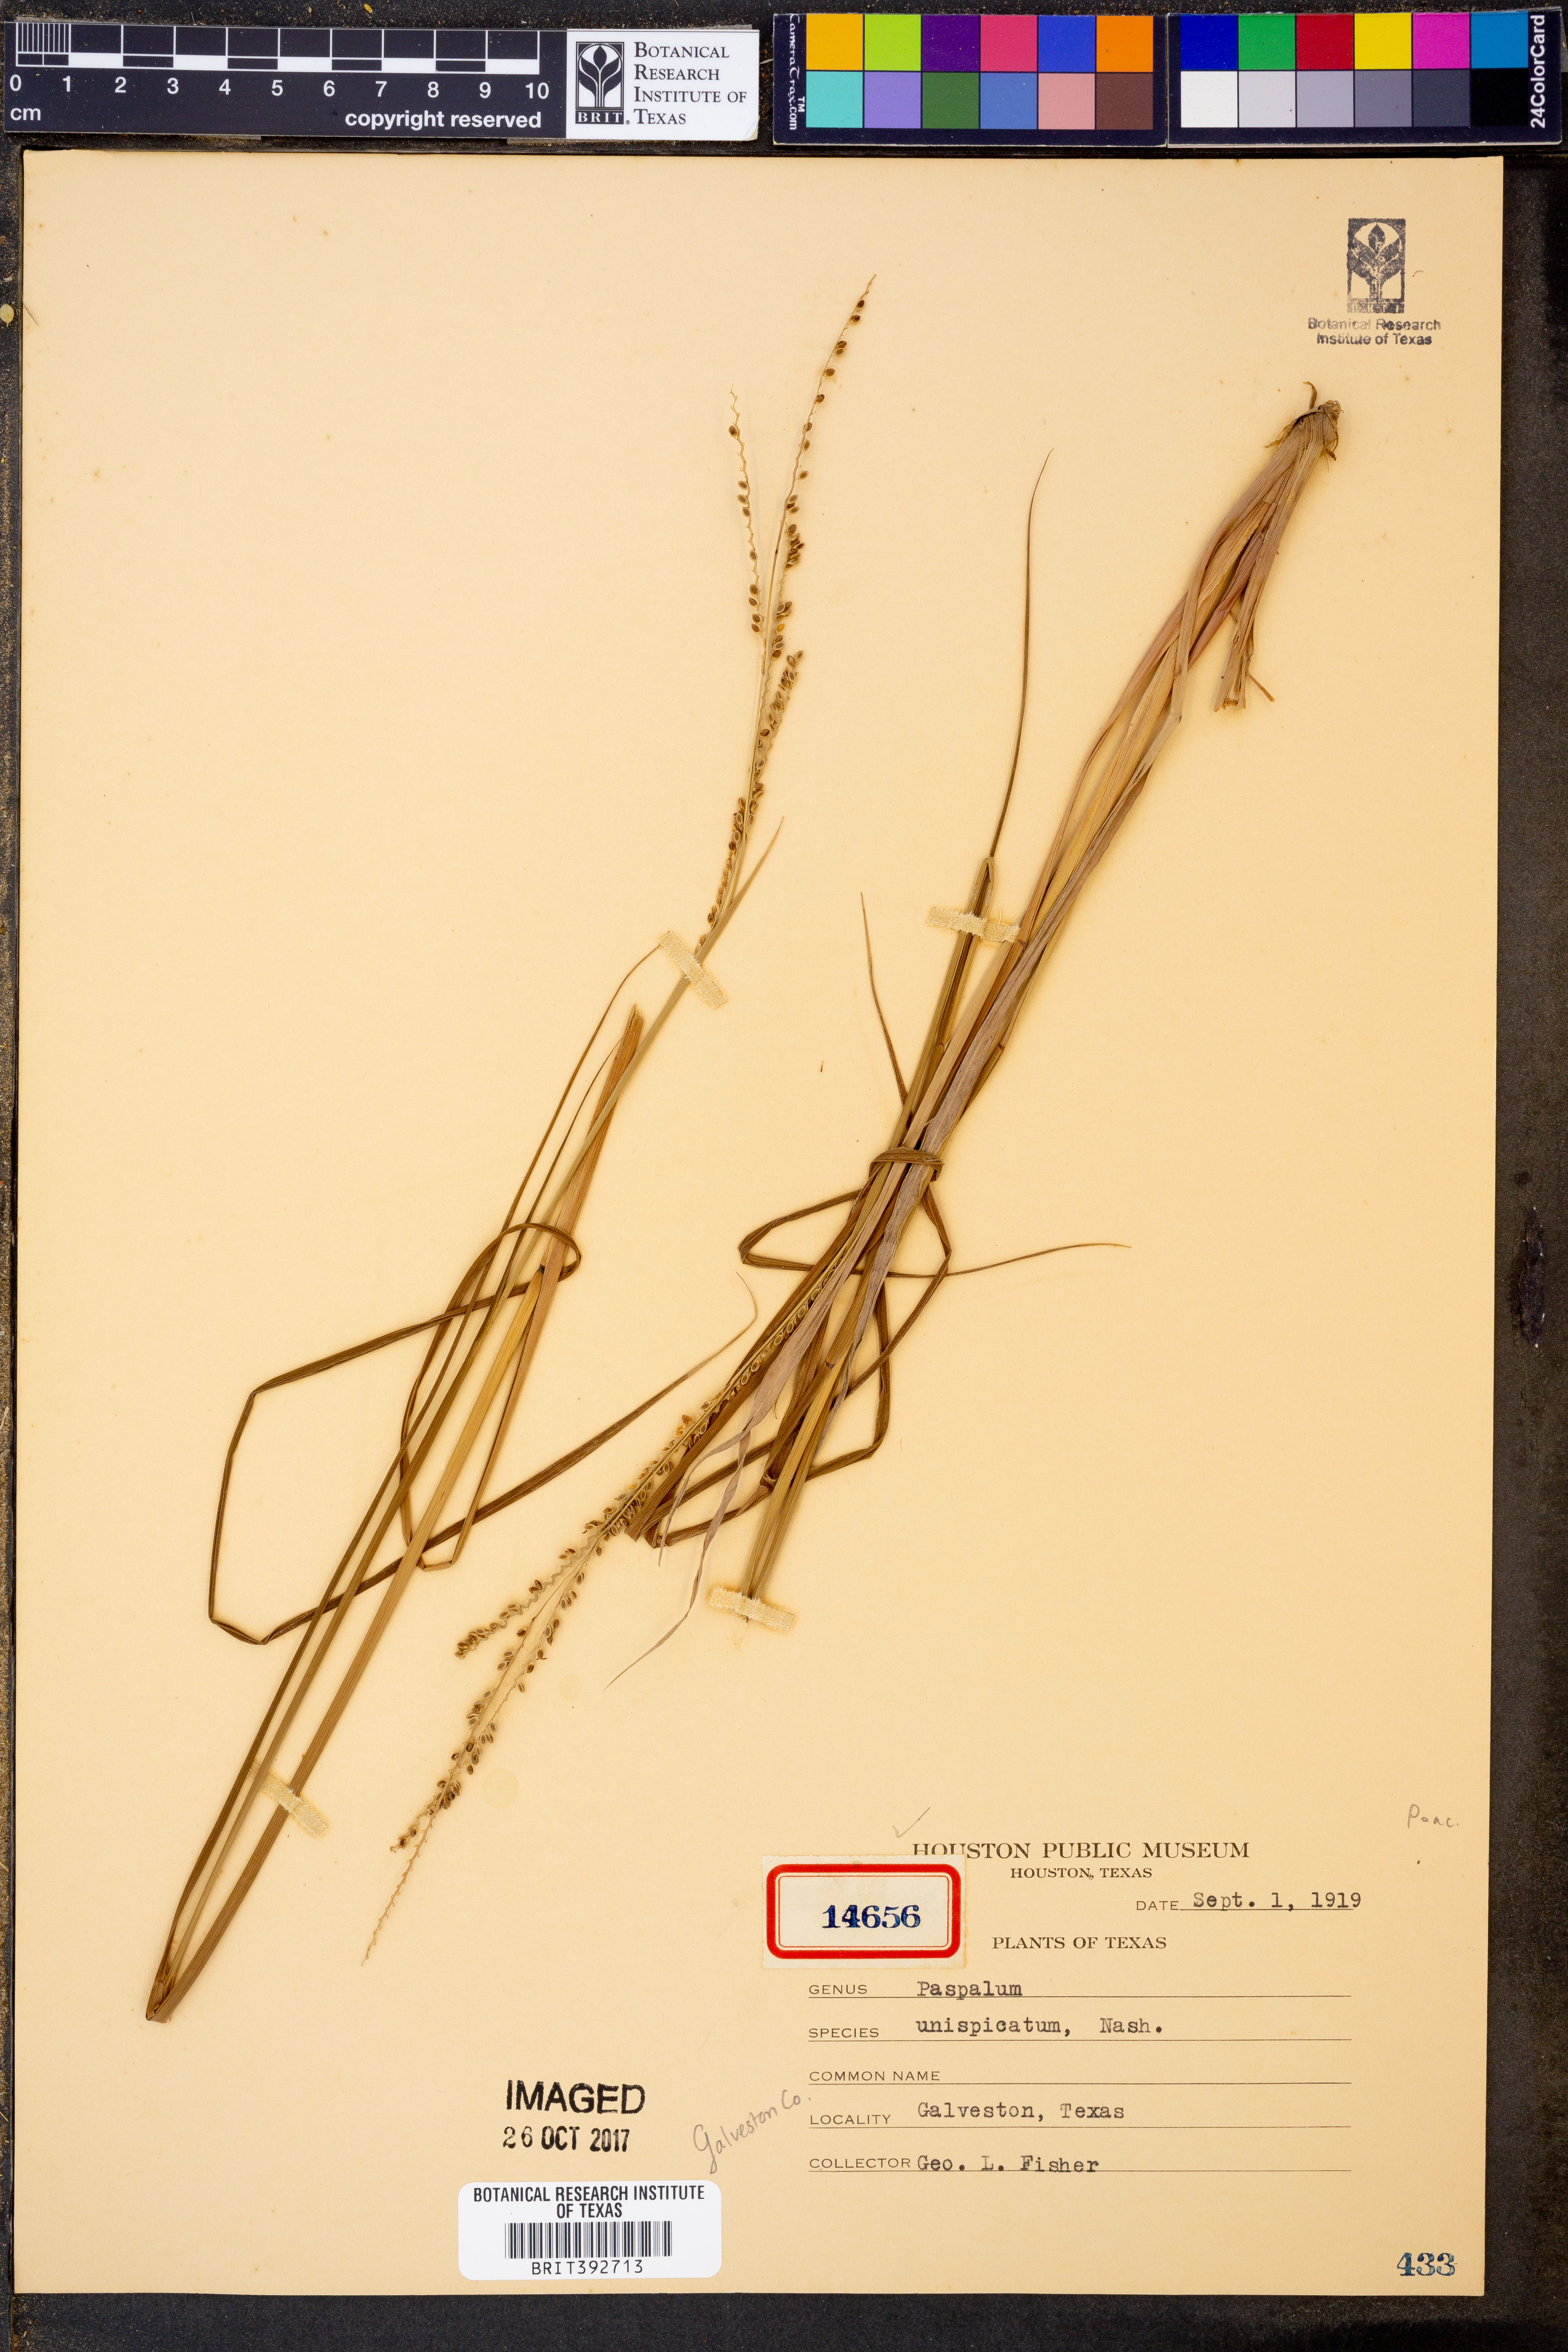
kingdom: Plantae
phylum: Tracheophyta
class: Liliopsida
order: Poales
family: Poaceae
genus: Paspalum
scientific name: Paspalum unispicatum
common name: Onespike paspalum
